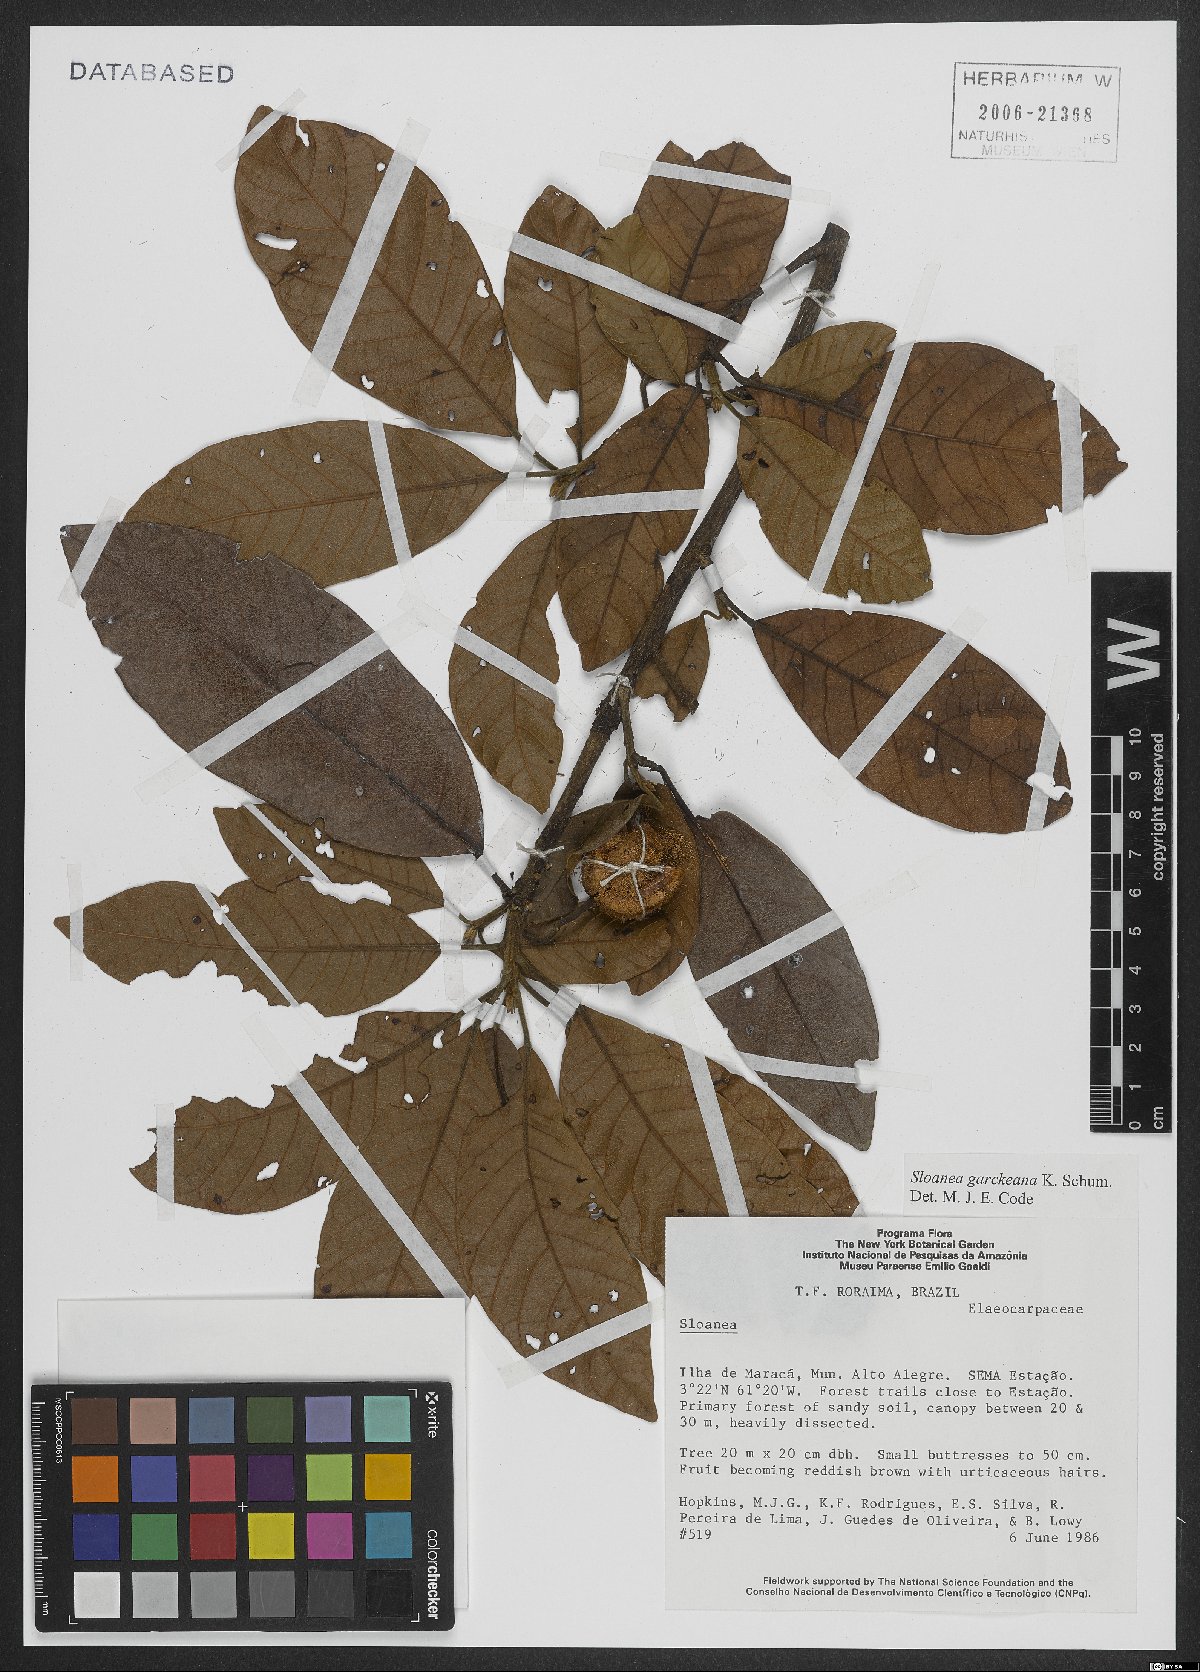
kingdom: Plantae
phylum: Tracheophyta
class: Magnoliopsida
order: Oxalidales
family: Elaeocarpaceae
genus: Sloanea
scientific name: Sloanea garckeana
